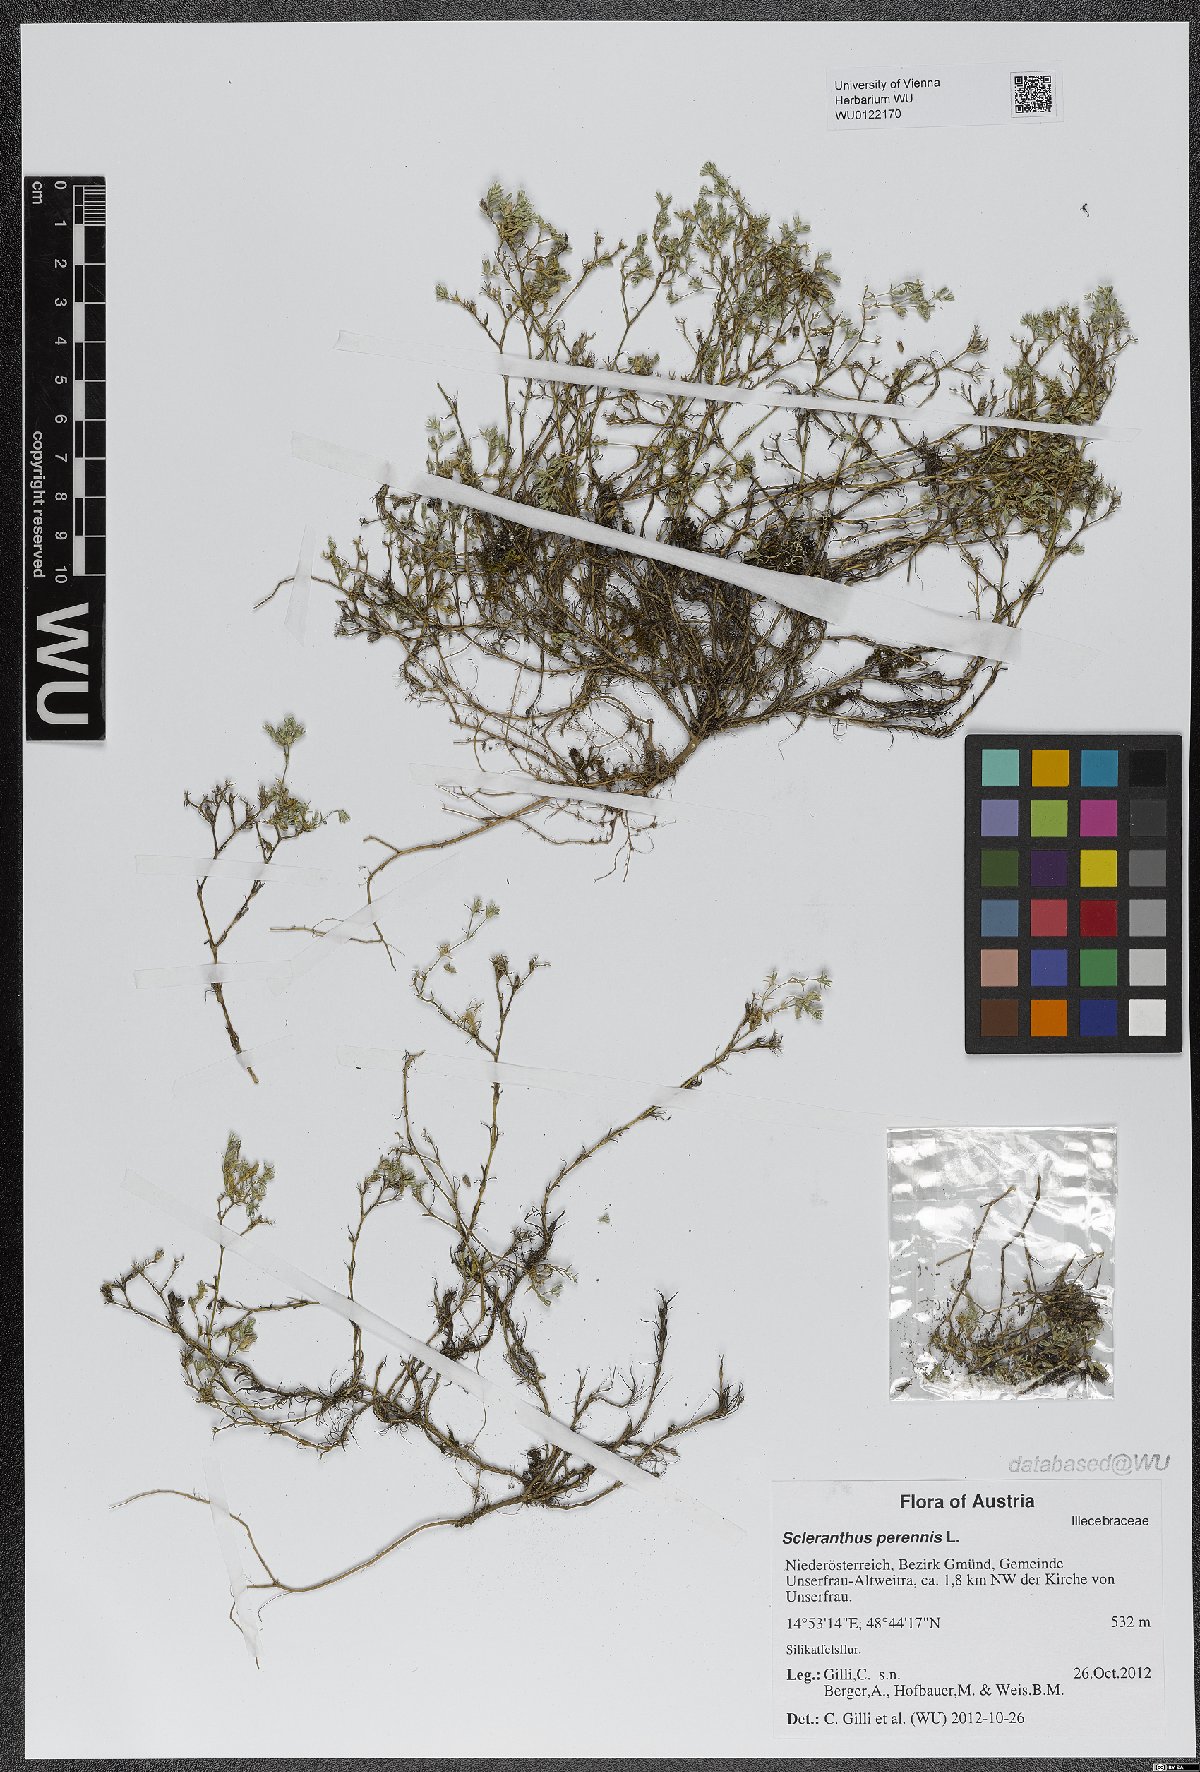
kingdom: Plantae
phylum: Tracheophyta
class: Magnoliopsida
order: Caryophyllales
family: Caryophyllaceae
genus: Scleranthus
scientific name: Scleranthus perennis
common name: Perennial knawel
